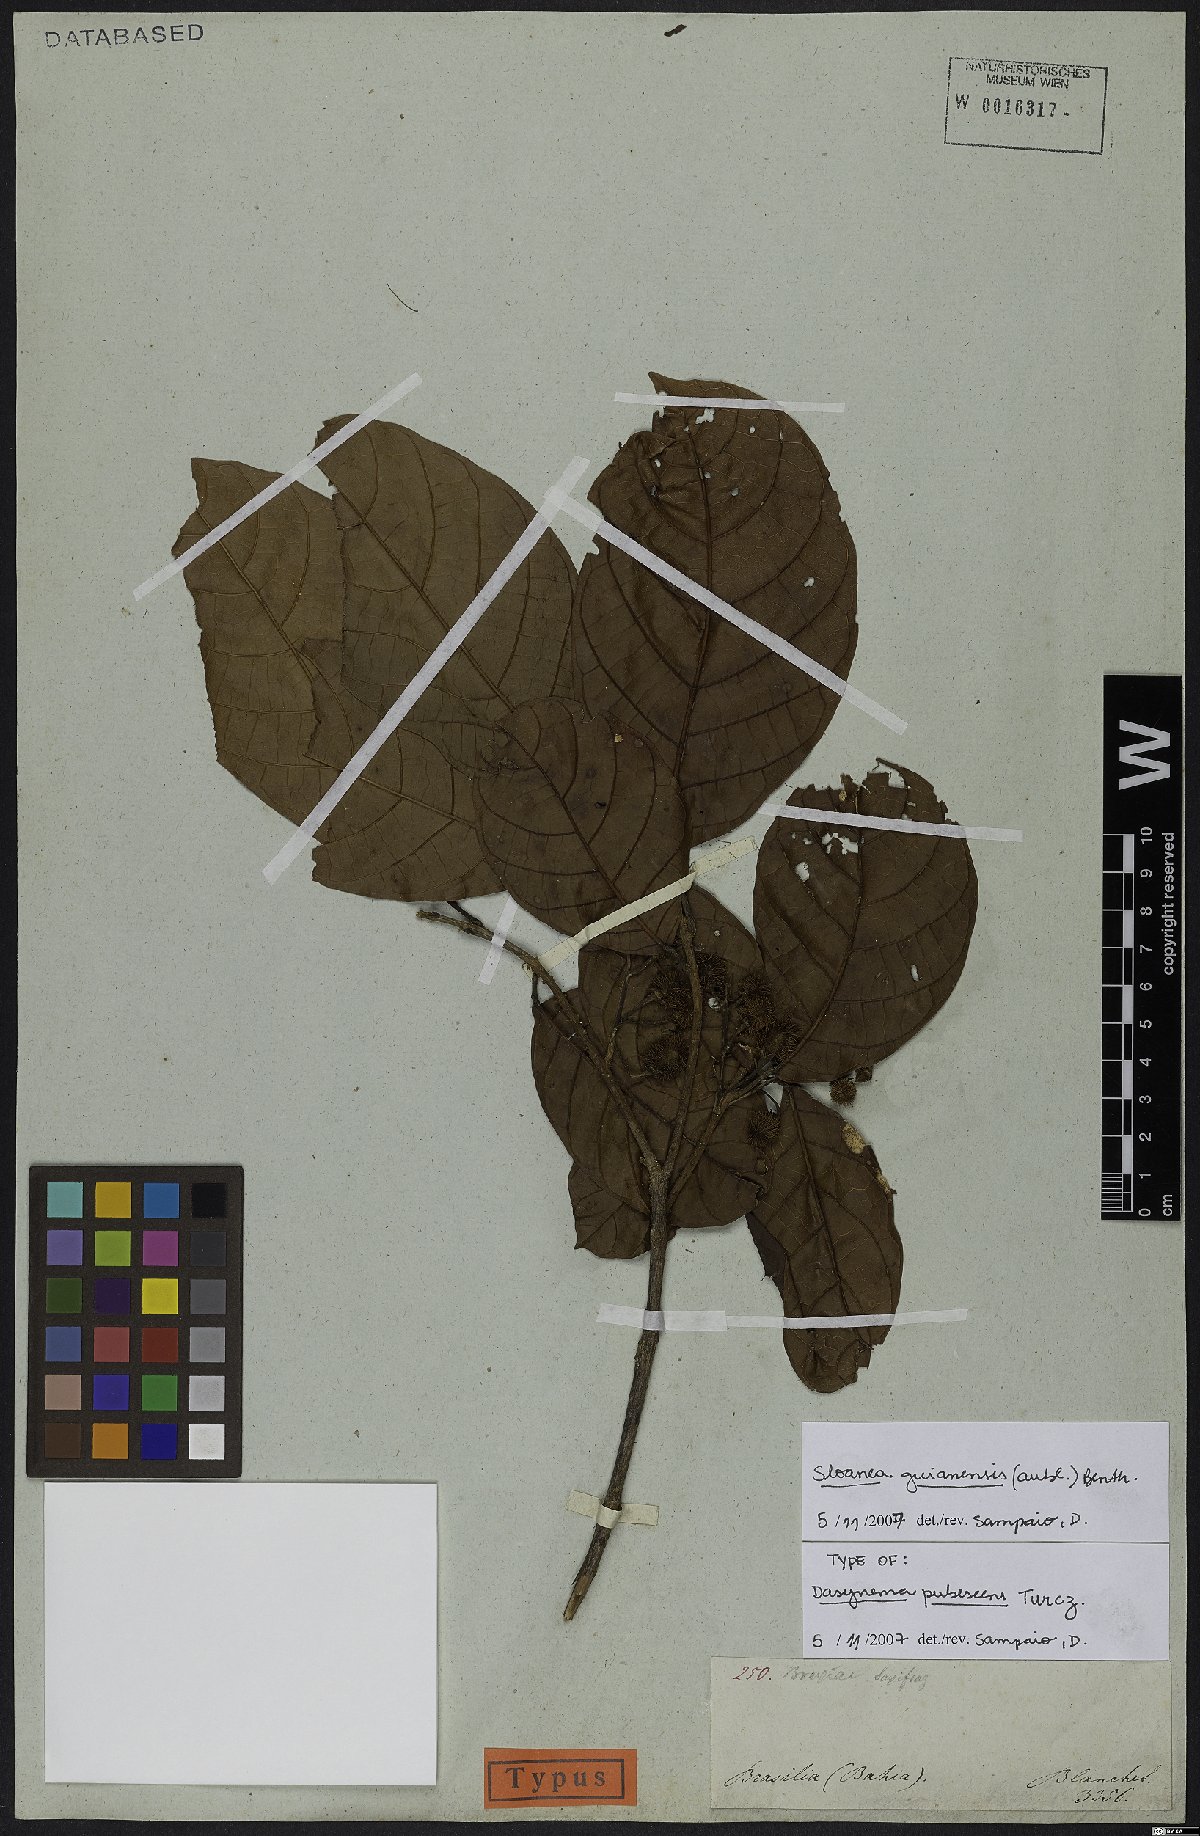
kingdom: Plantae
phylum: Tracheophyta
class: Magnoliopsida
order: Oxalidales
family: Elaeocarpaceae
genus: Sloanea
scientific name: Sloanea guianensis
